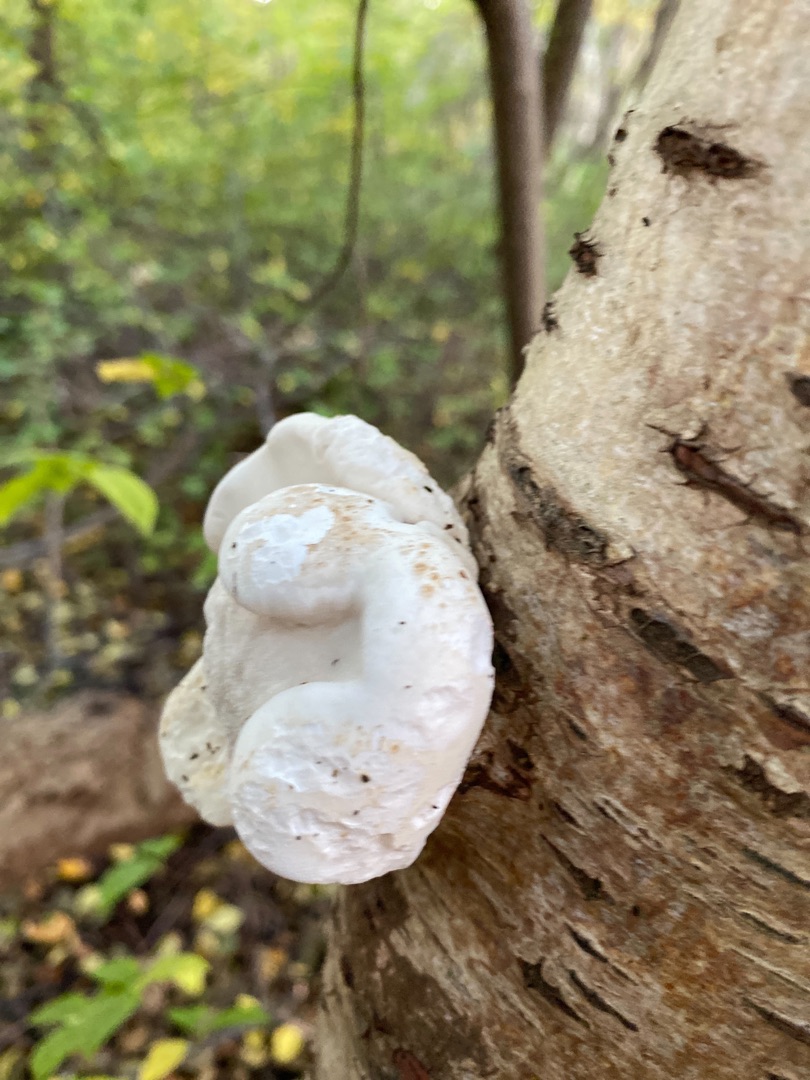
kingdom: Fungi
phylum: Basidiomycota
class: Agaricomycetes
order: Polyporales
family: Fomitopsidaceae
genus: Fomitopsis
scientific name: Fomitopsis betulina
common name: Birkeporesvamp
